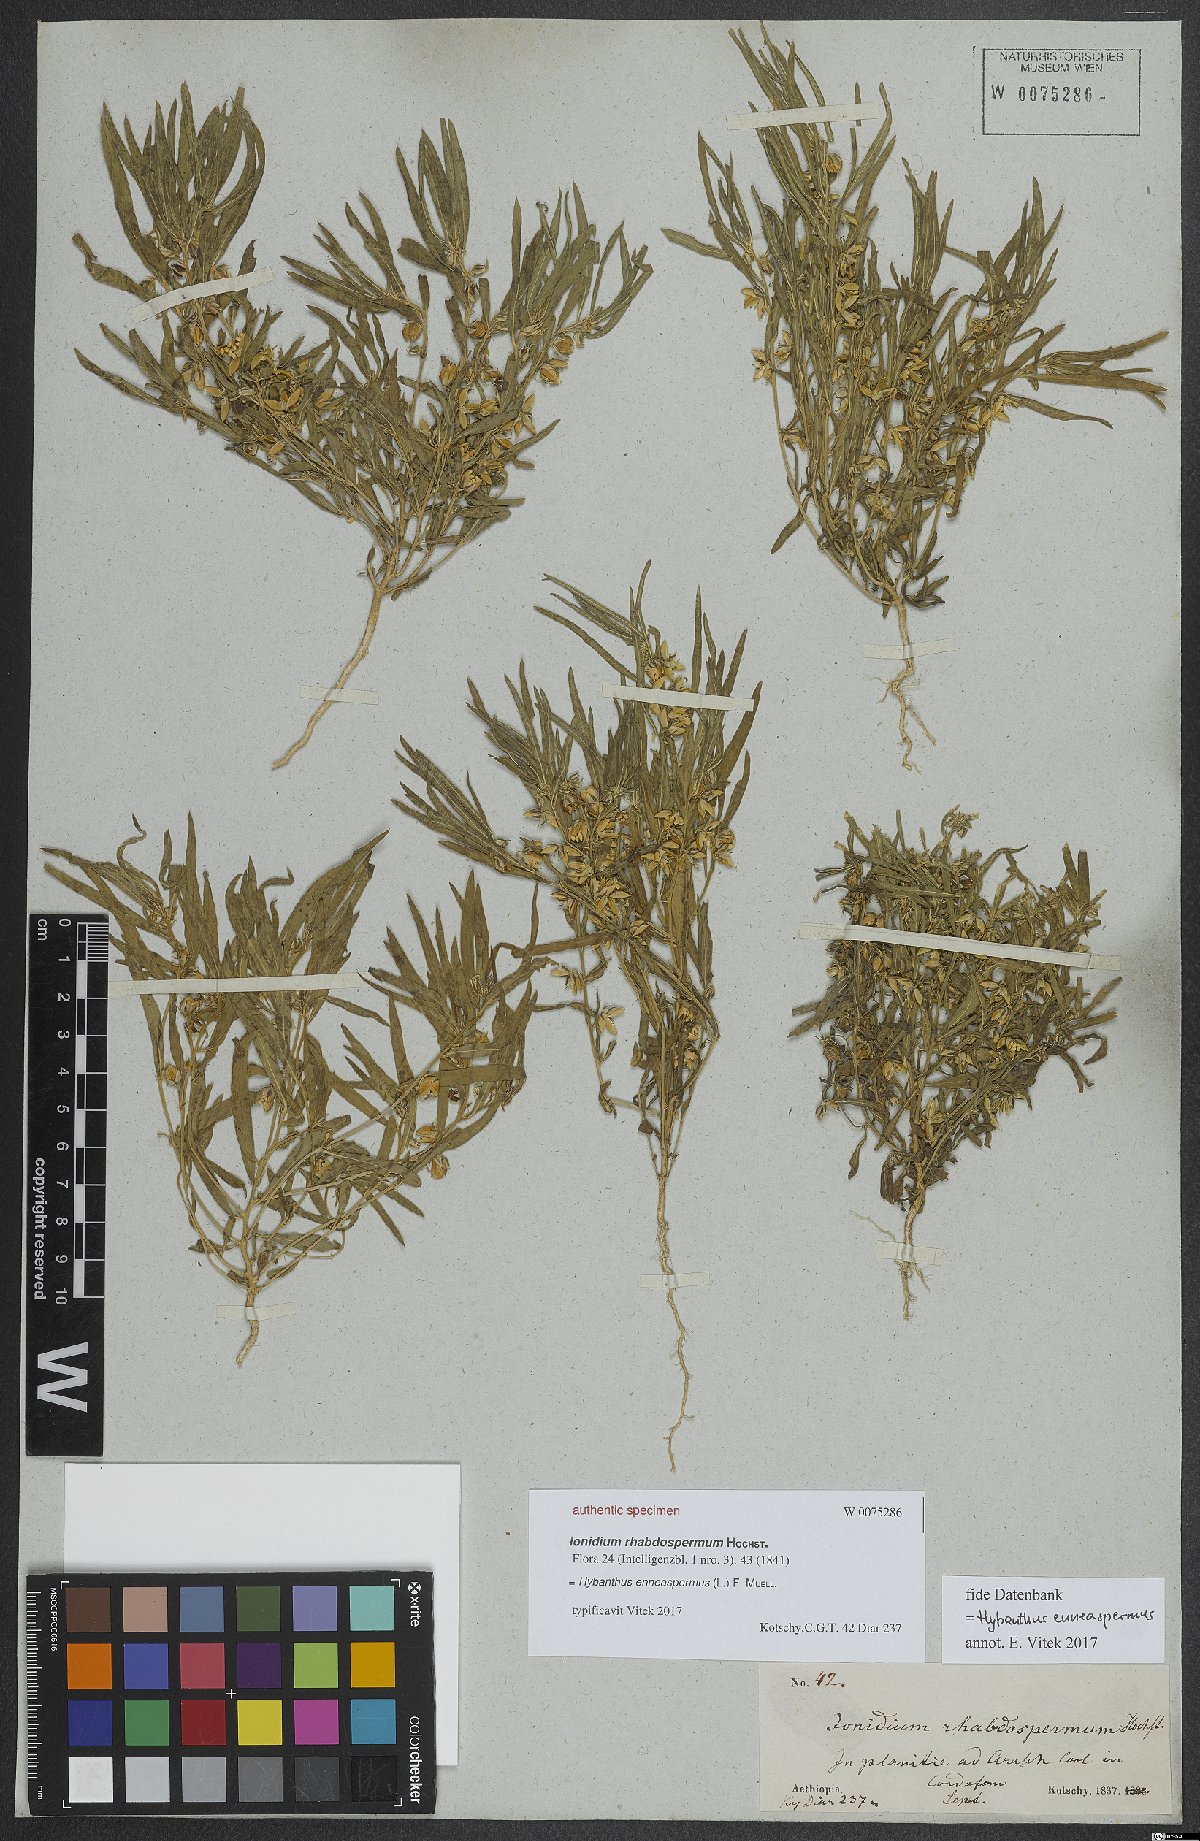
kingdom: Plantae
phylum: Tracheophyta
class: Magnoliopsida
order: Malpighiales
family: Violaceae
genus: Pigea
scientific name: Pigea enneasperma
